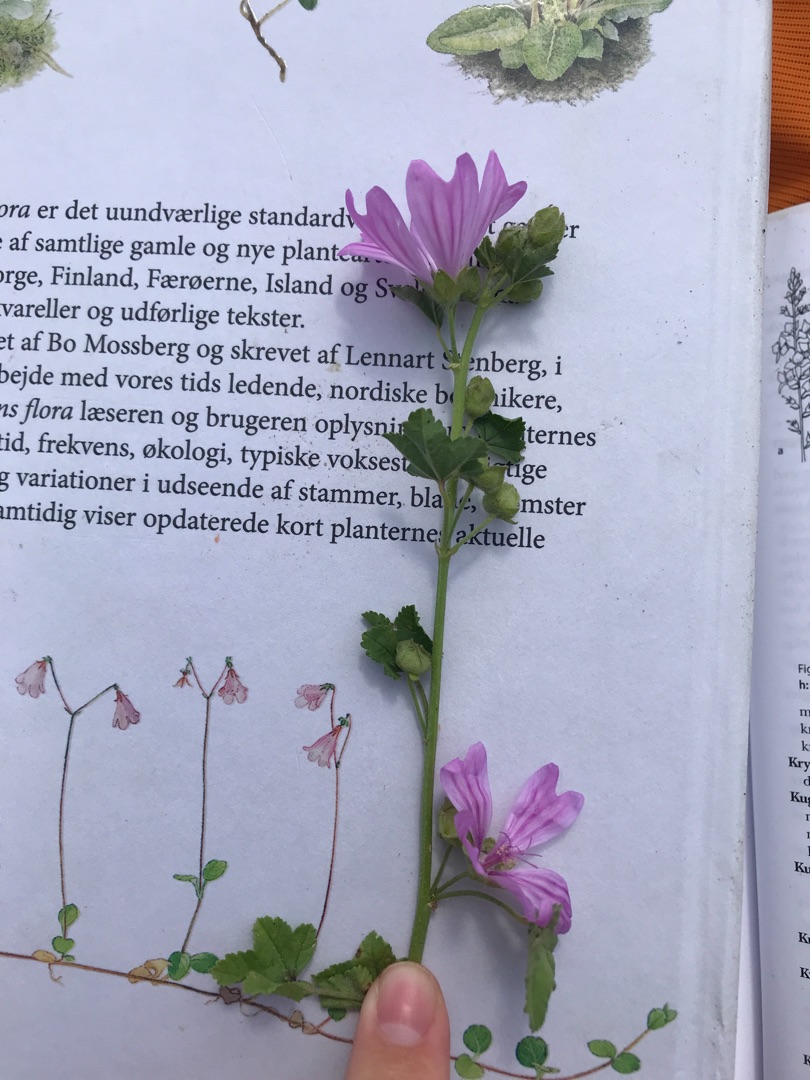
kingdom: Plantae
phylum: Tracheophyta
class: Magnoliopsida
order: Malvales
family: Malvaceae
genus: Malva
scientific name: Malva sylvestris
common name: Almindelig katost
